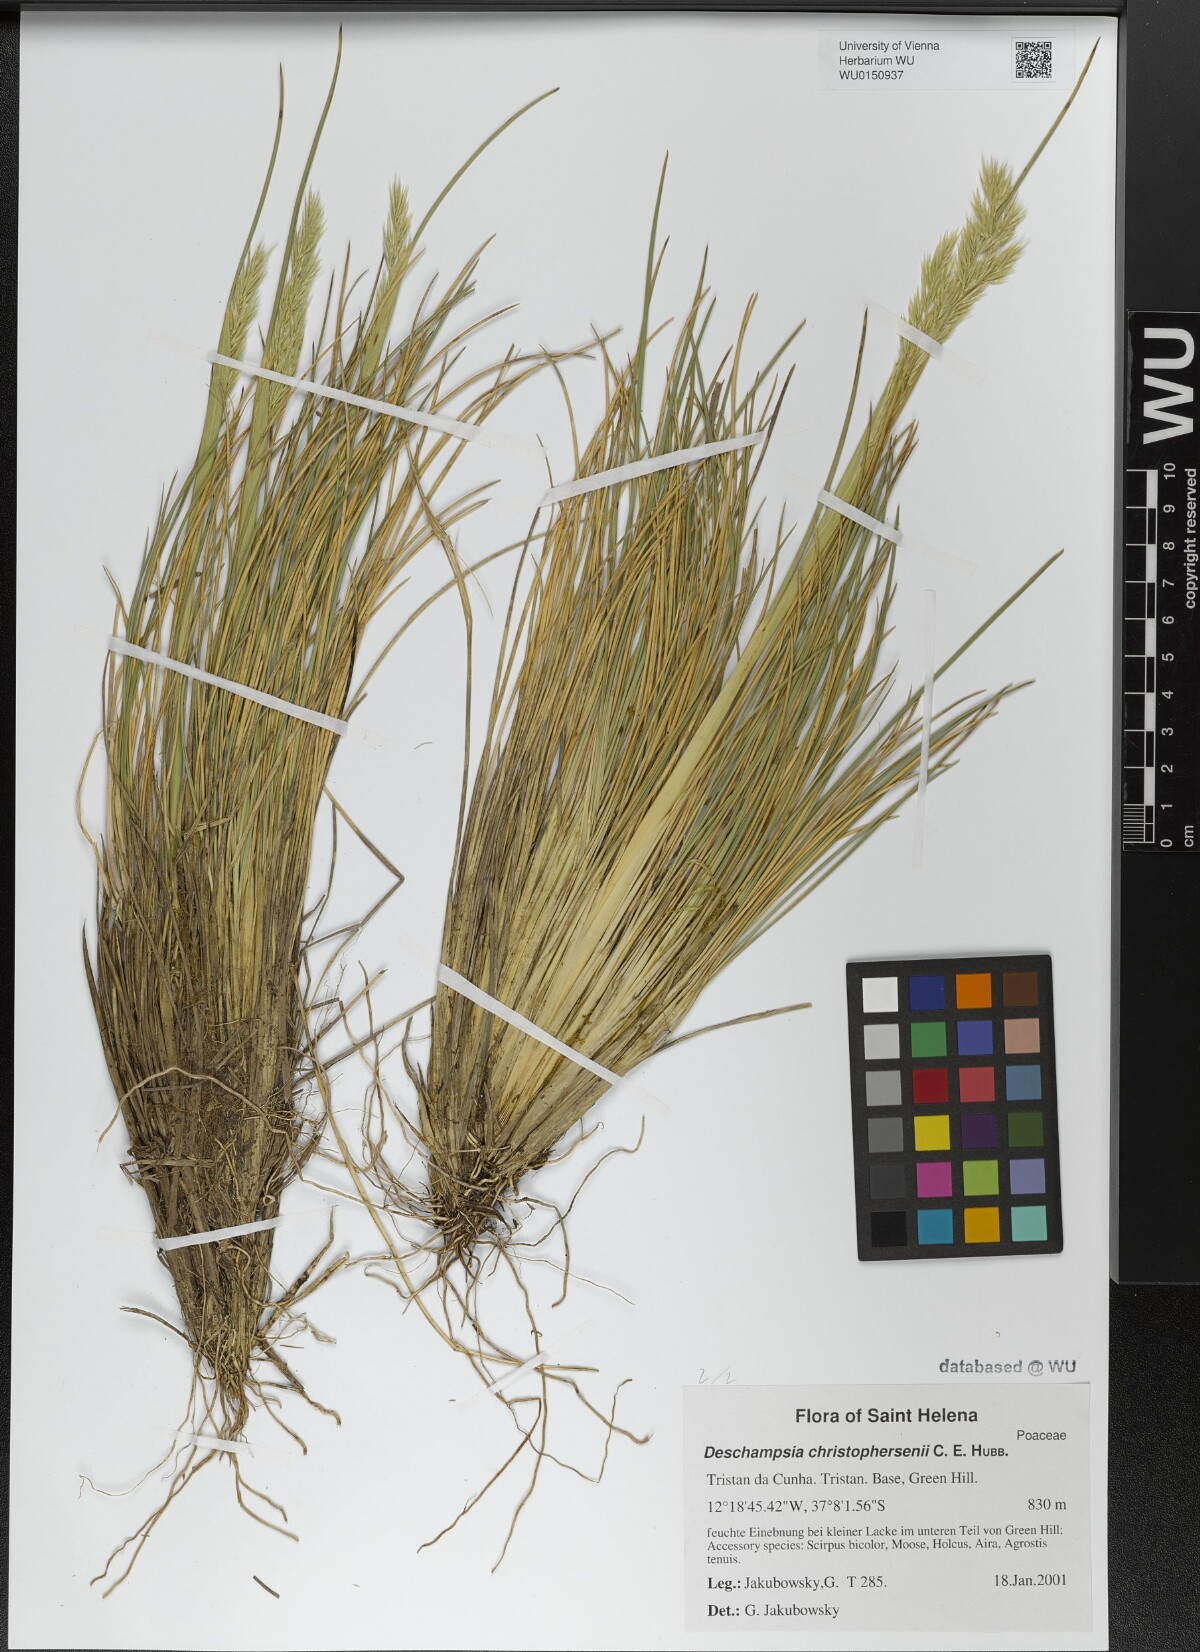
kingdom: Plantae
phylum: Tracheophyta
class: Liliopsida
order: Poales
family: Poaceae
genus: Deschampsia
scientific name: Deschampsia christophersenii
